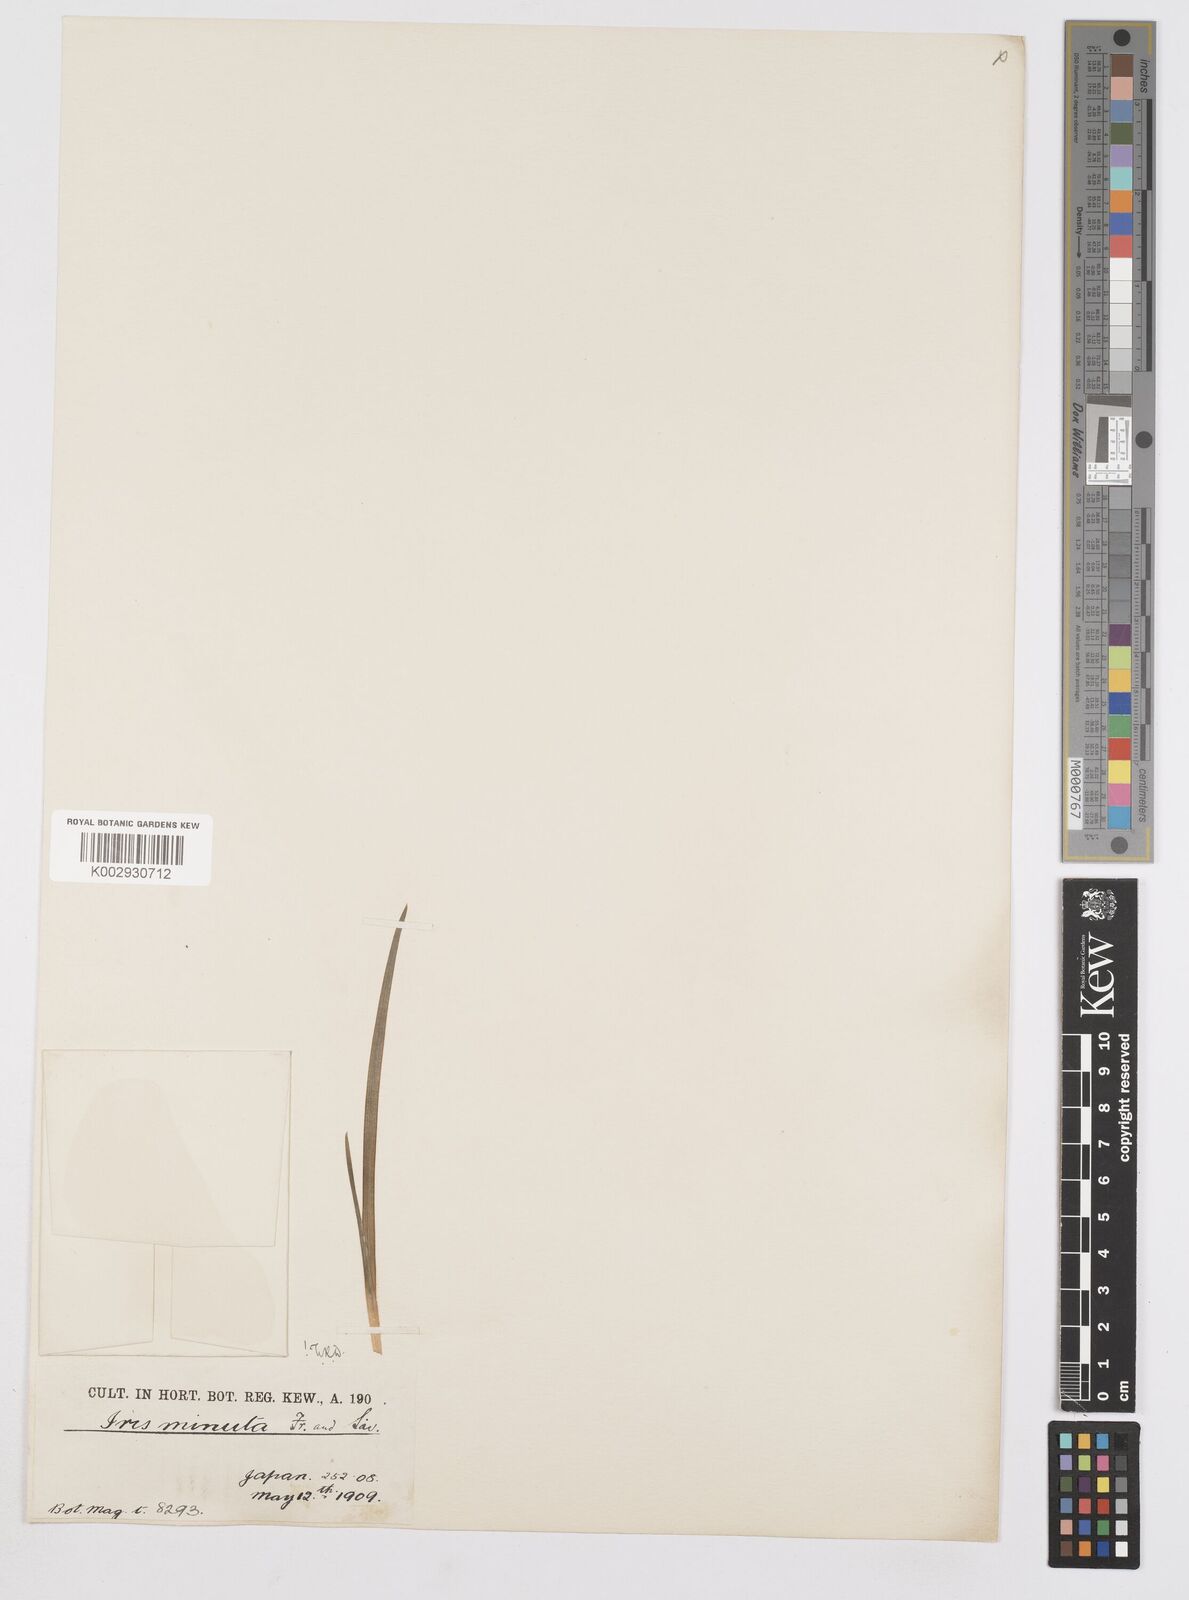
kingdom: Plantae
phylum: Tracheophyta
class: Liliopsida
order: Asparagales
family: Iridaceae
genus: Iris
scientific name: Iris minutoaurea
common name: Small yellow-flower iris
